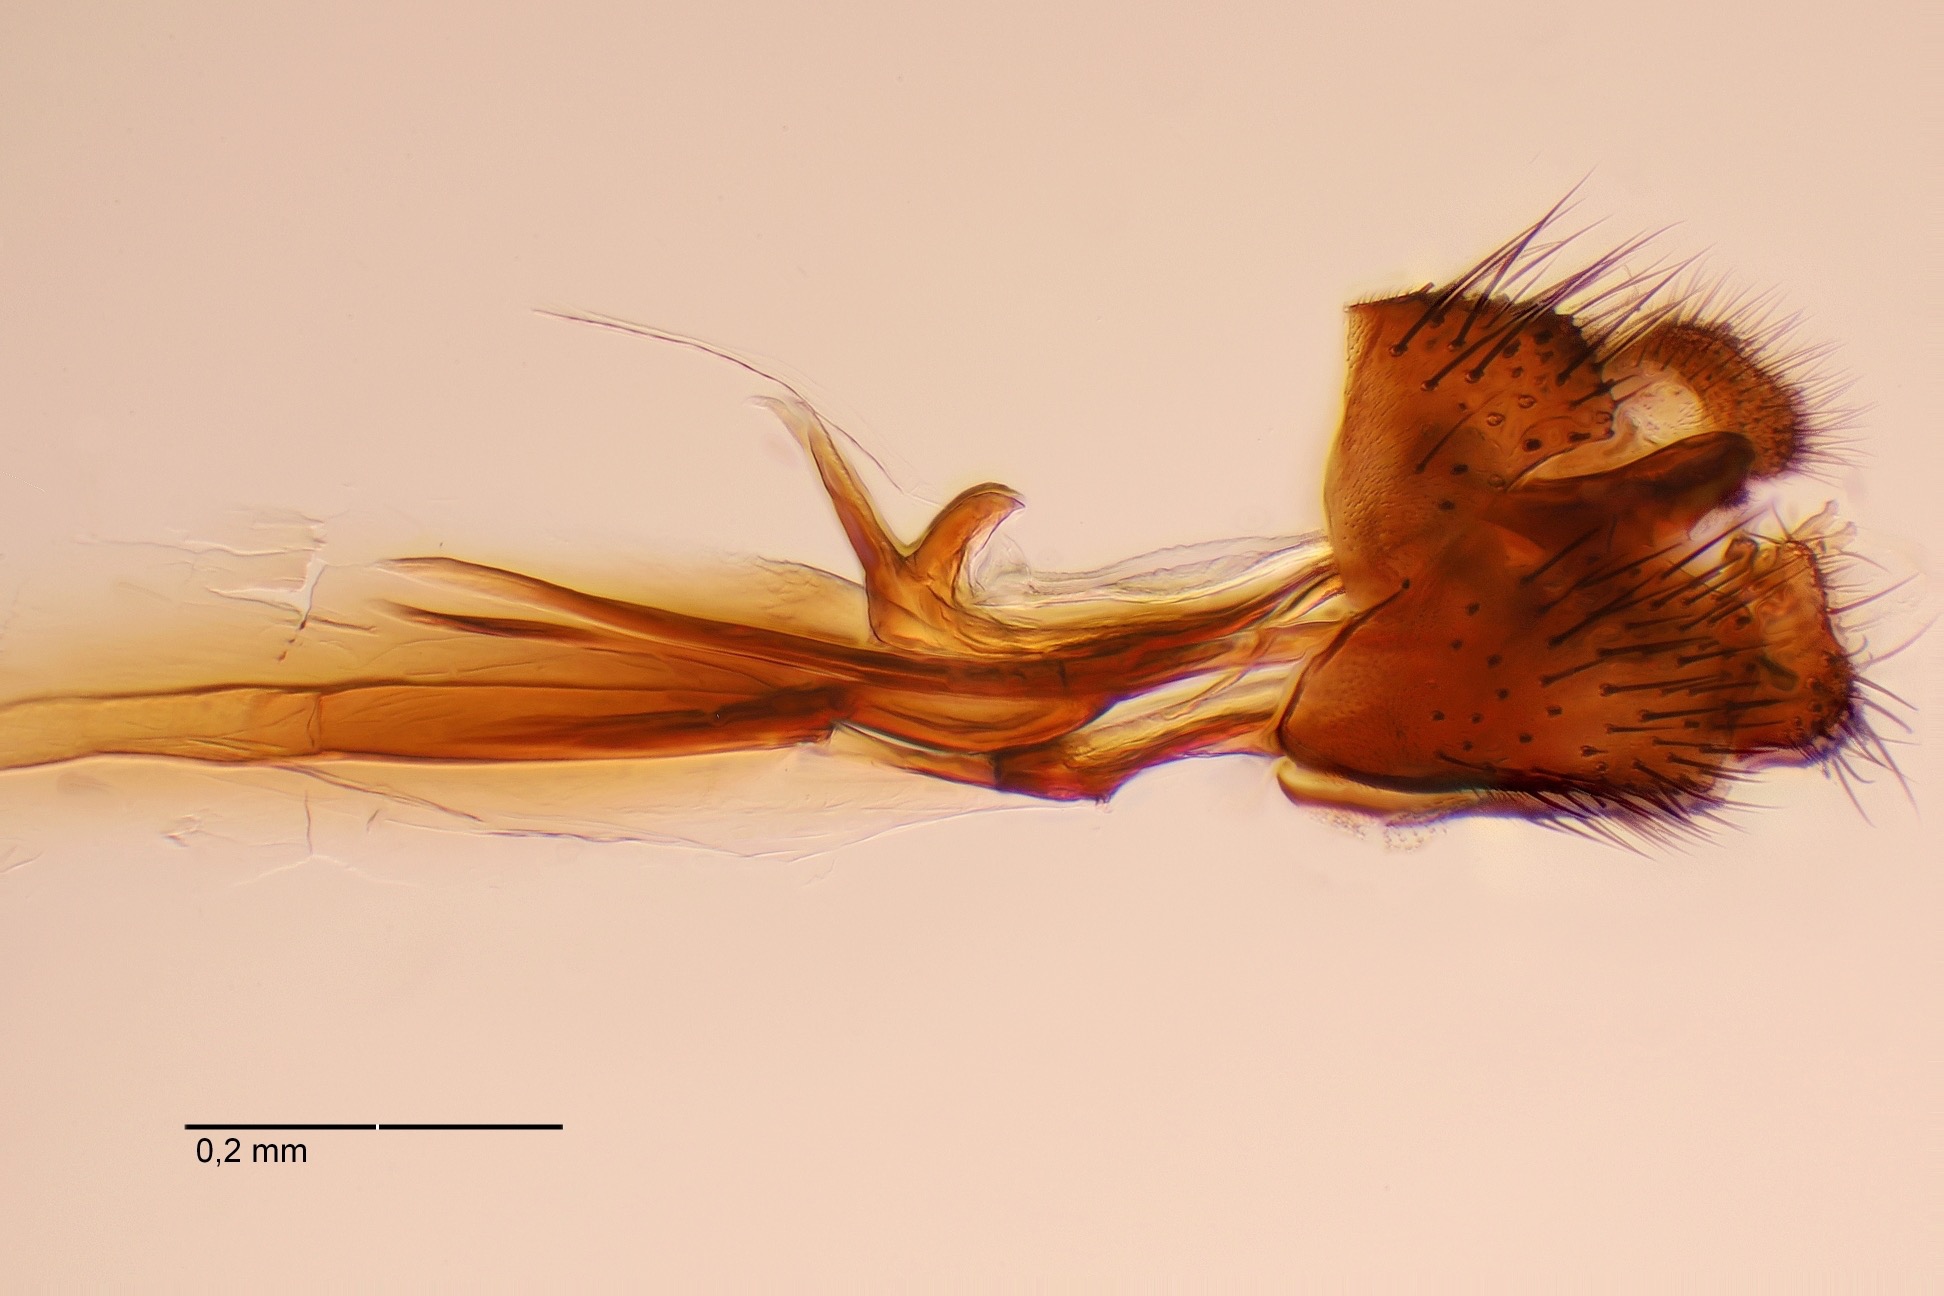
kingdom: Animalia
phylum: Arthropoda
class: Insecta
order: Diptera
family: Keroplatidae
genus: Macrorrhyncha
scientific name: Macrorrhyncha flava
